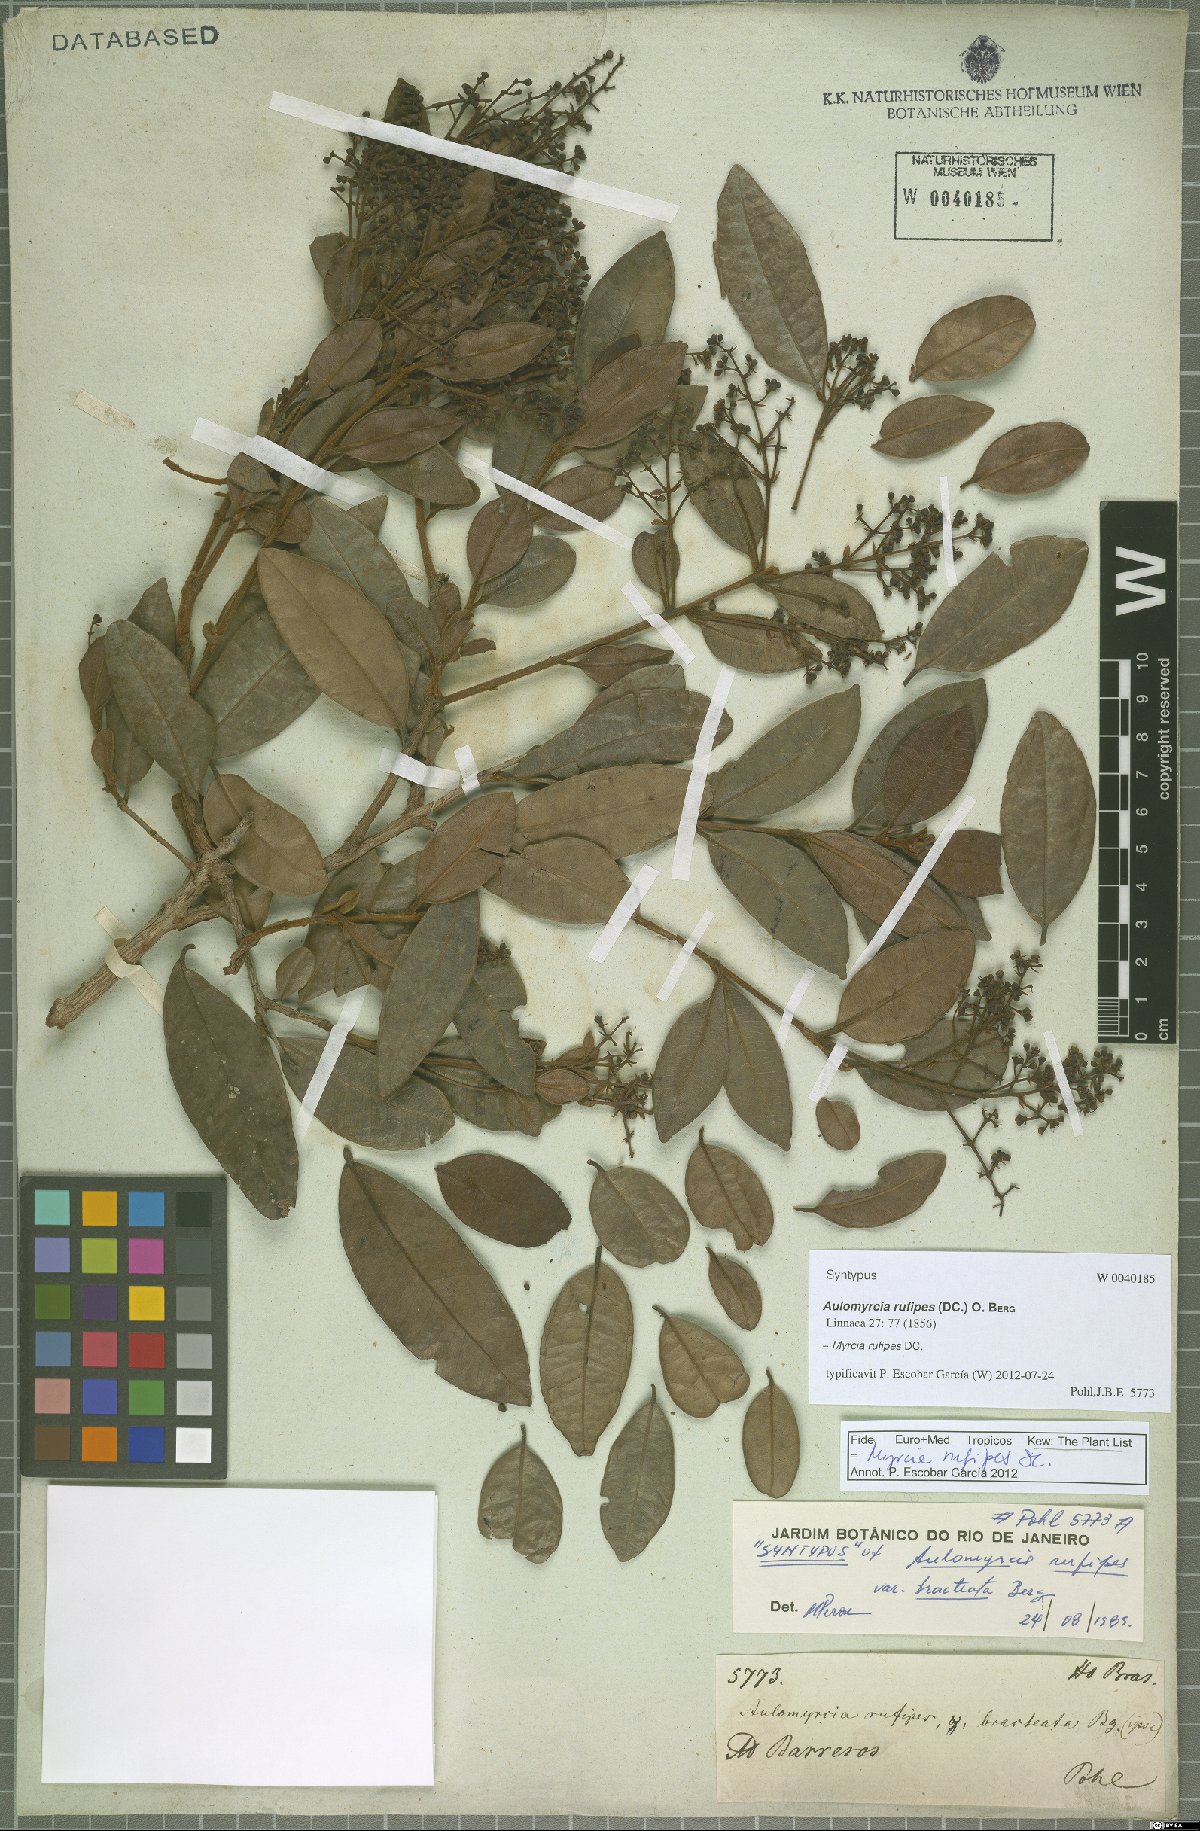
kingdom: Plantae
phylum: Tracheophyta
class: Magnoliopsida
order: Myrtales
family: Myrtaceae
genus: Myrcia
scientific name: Myrcia rufipes
